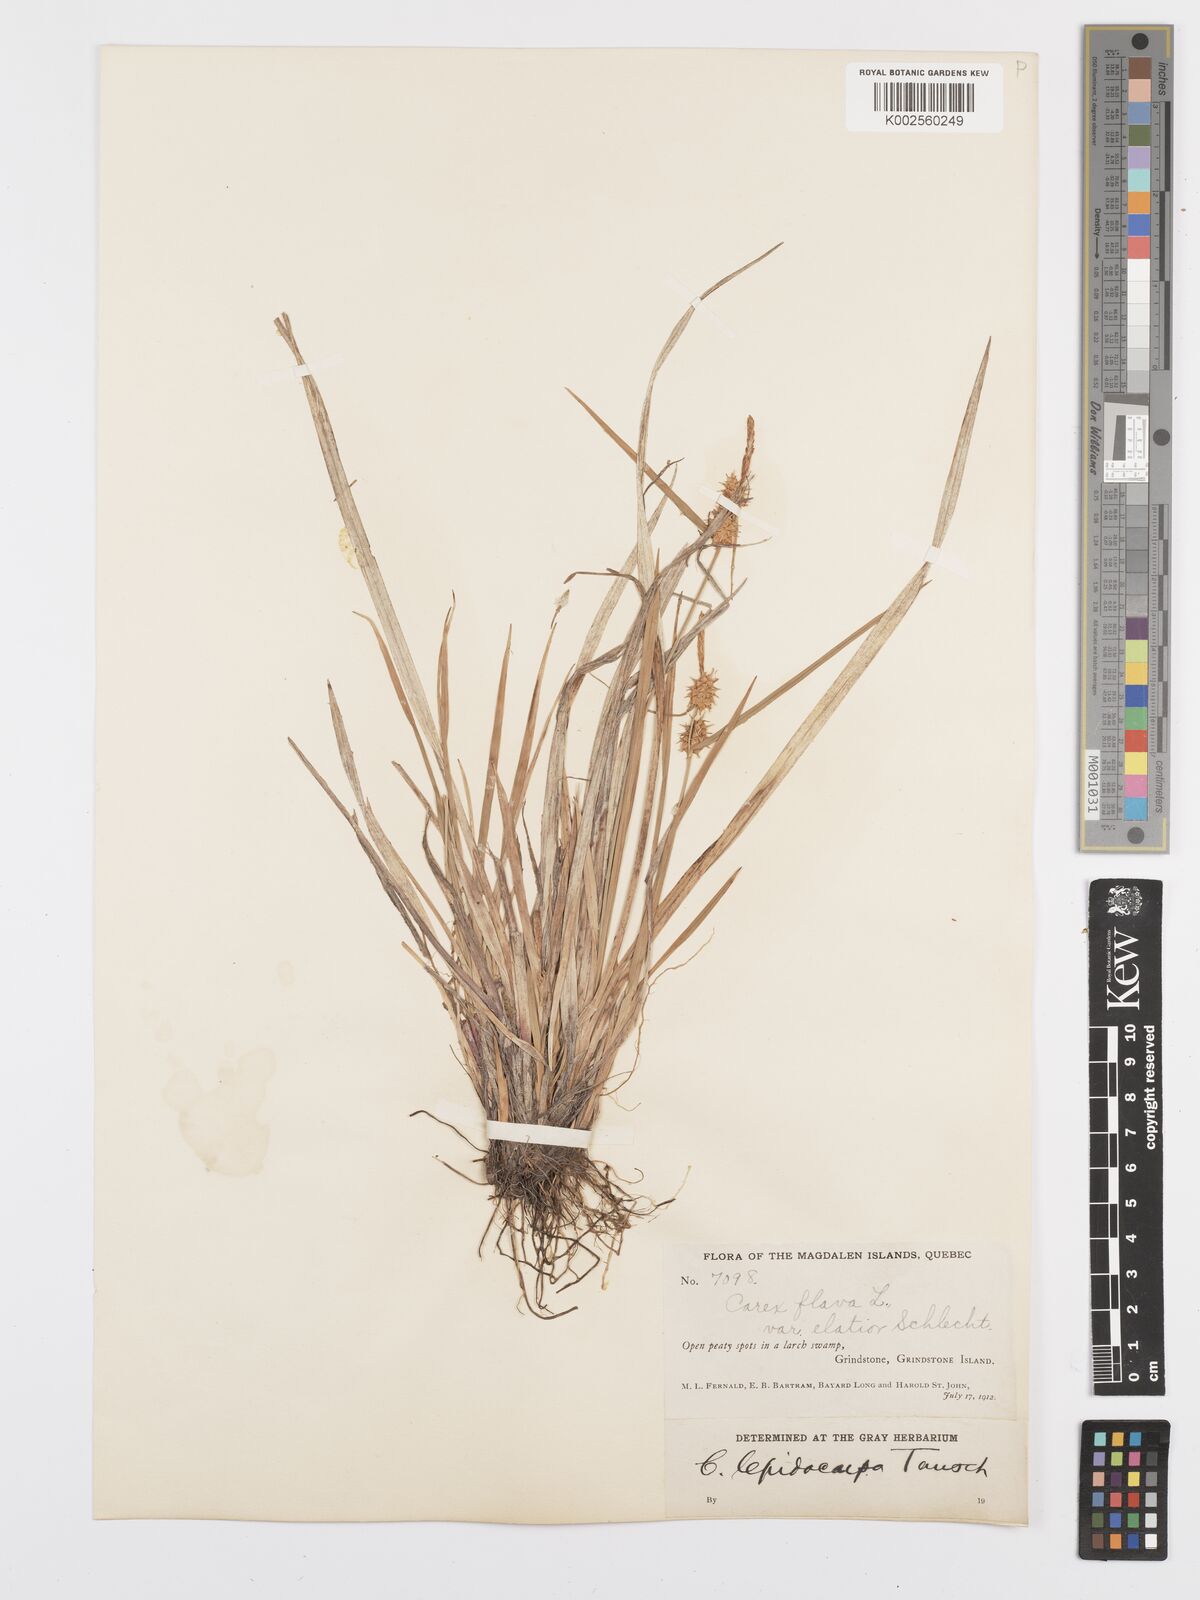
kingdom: Plantae
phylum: Tracheophyta
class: Liliopsida
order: Poales
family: Cyperaceae
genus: Carex
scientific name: Carex flava
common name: Large yellow-sedge
